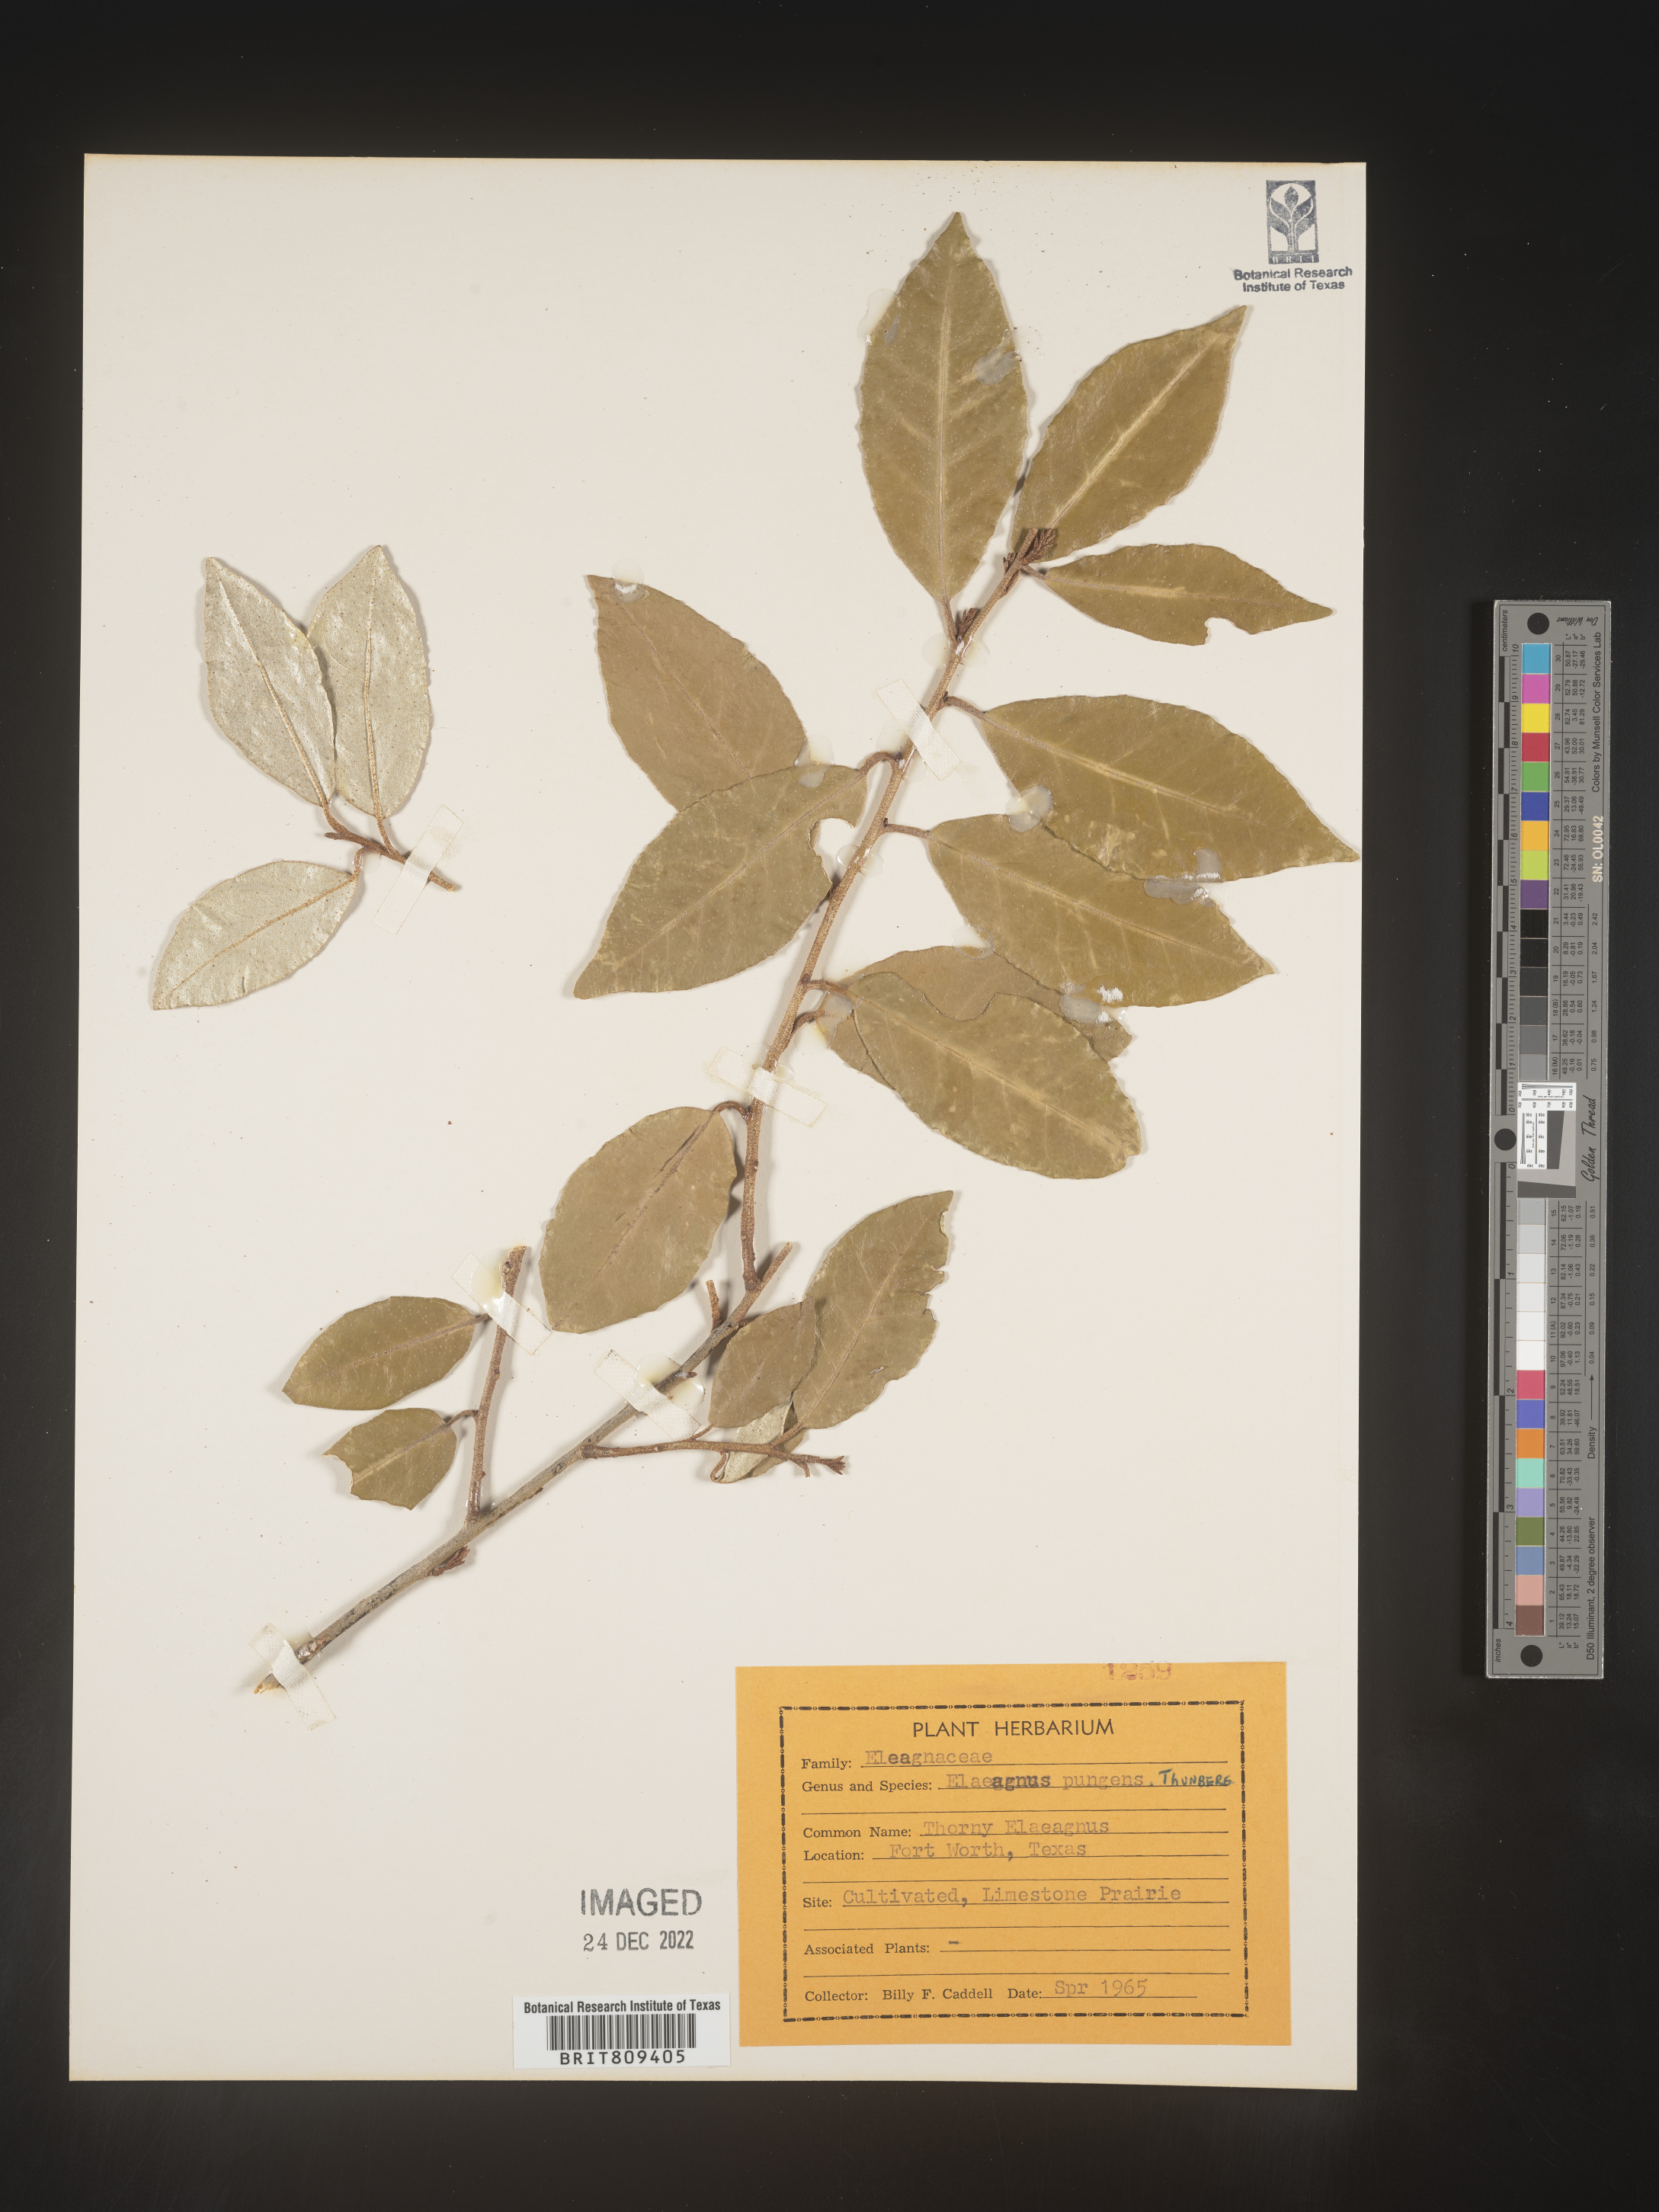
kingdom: Plantae
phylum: Tracheophyta
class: Magnoliopsida
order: Rosales
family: Elaeagnaceae
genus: Elaeagnus
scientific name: Elaeagnus
